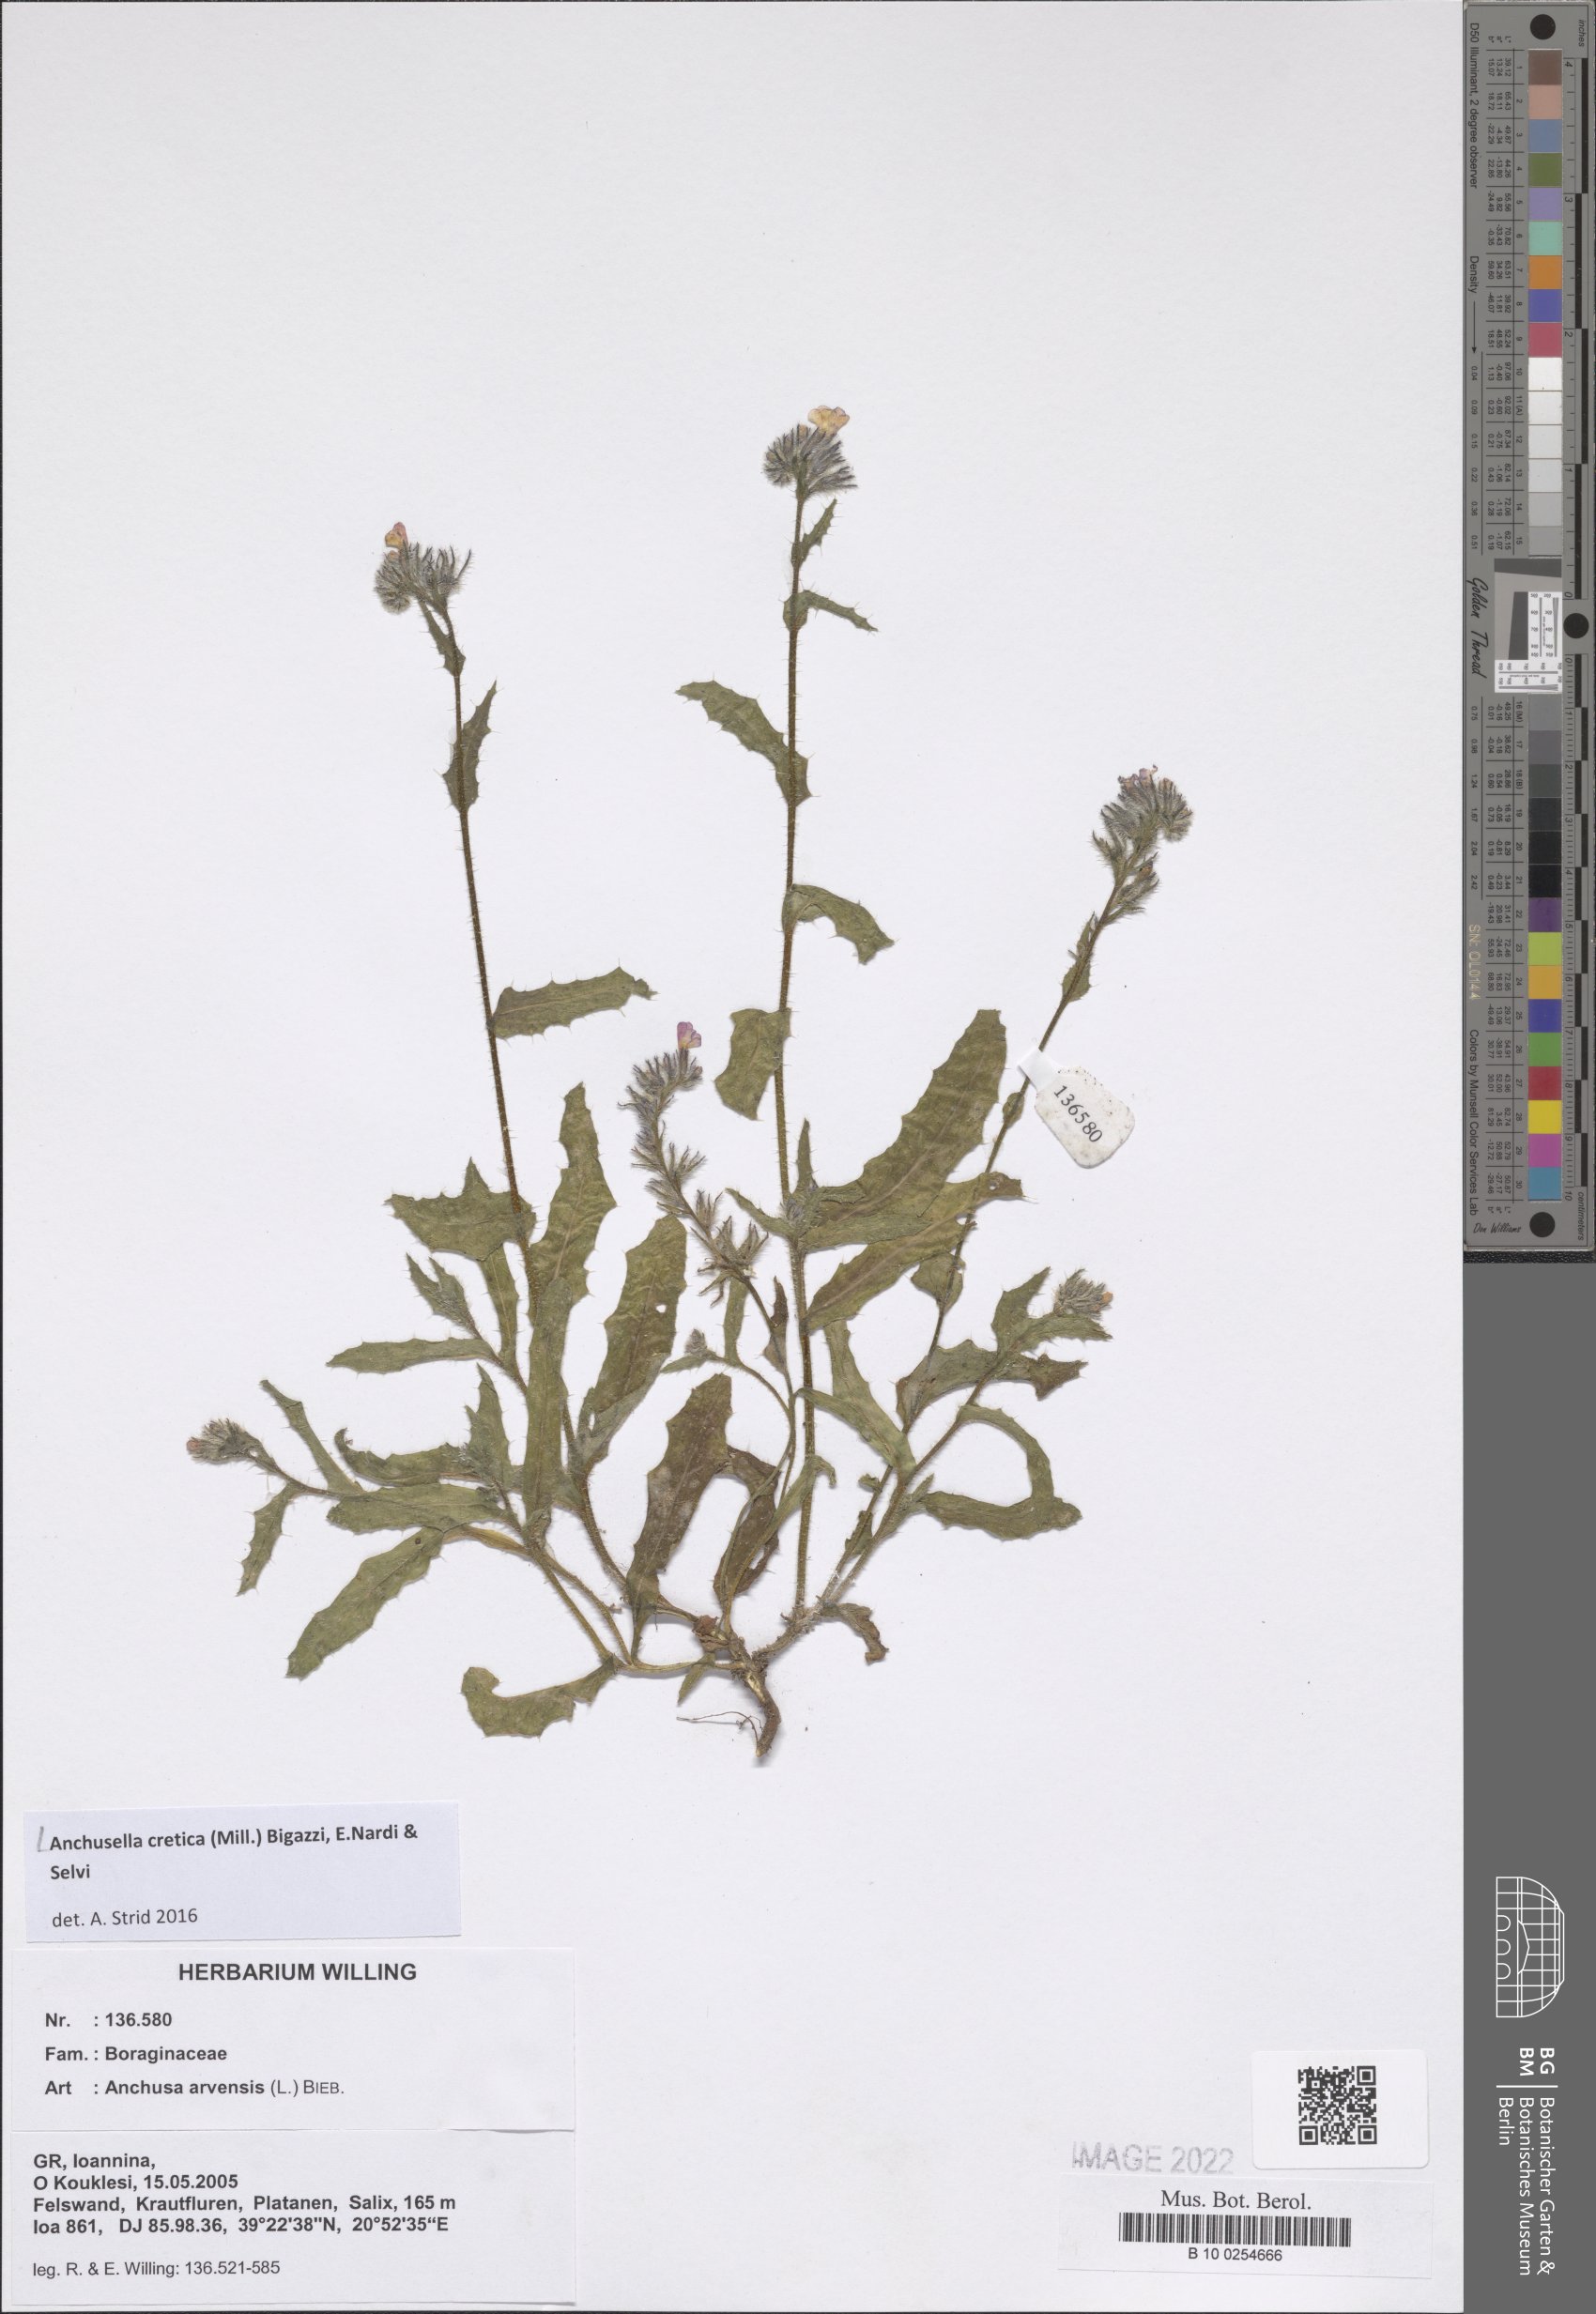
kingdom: Plantae
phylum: Tracheophyta
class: Magnoliopsida
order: Boraginales
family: Boraginaceae
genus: Anchusella
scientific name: Anchusella cretica
